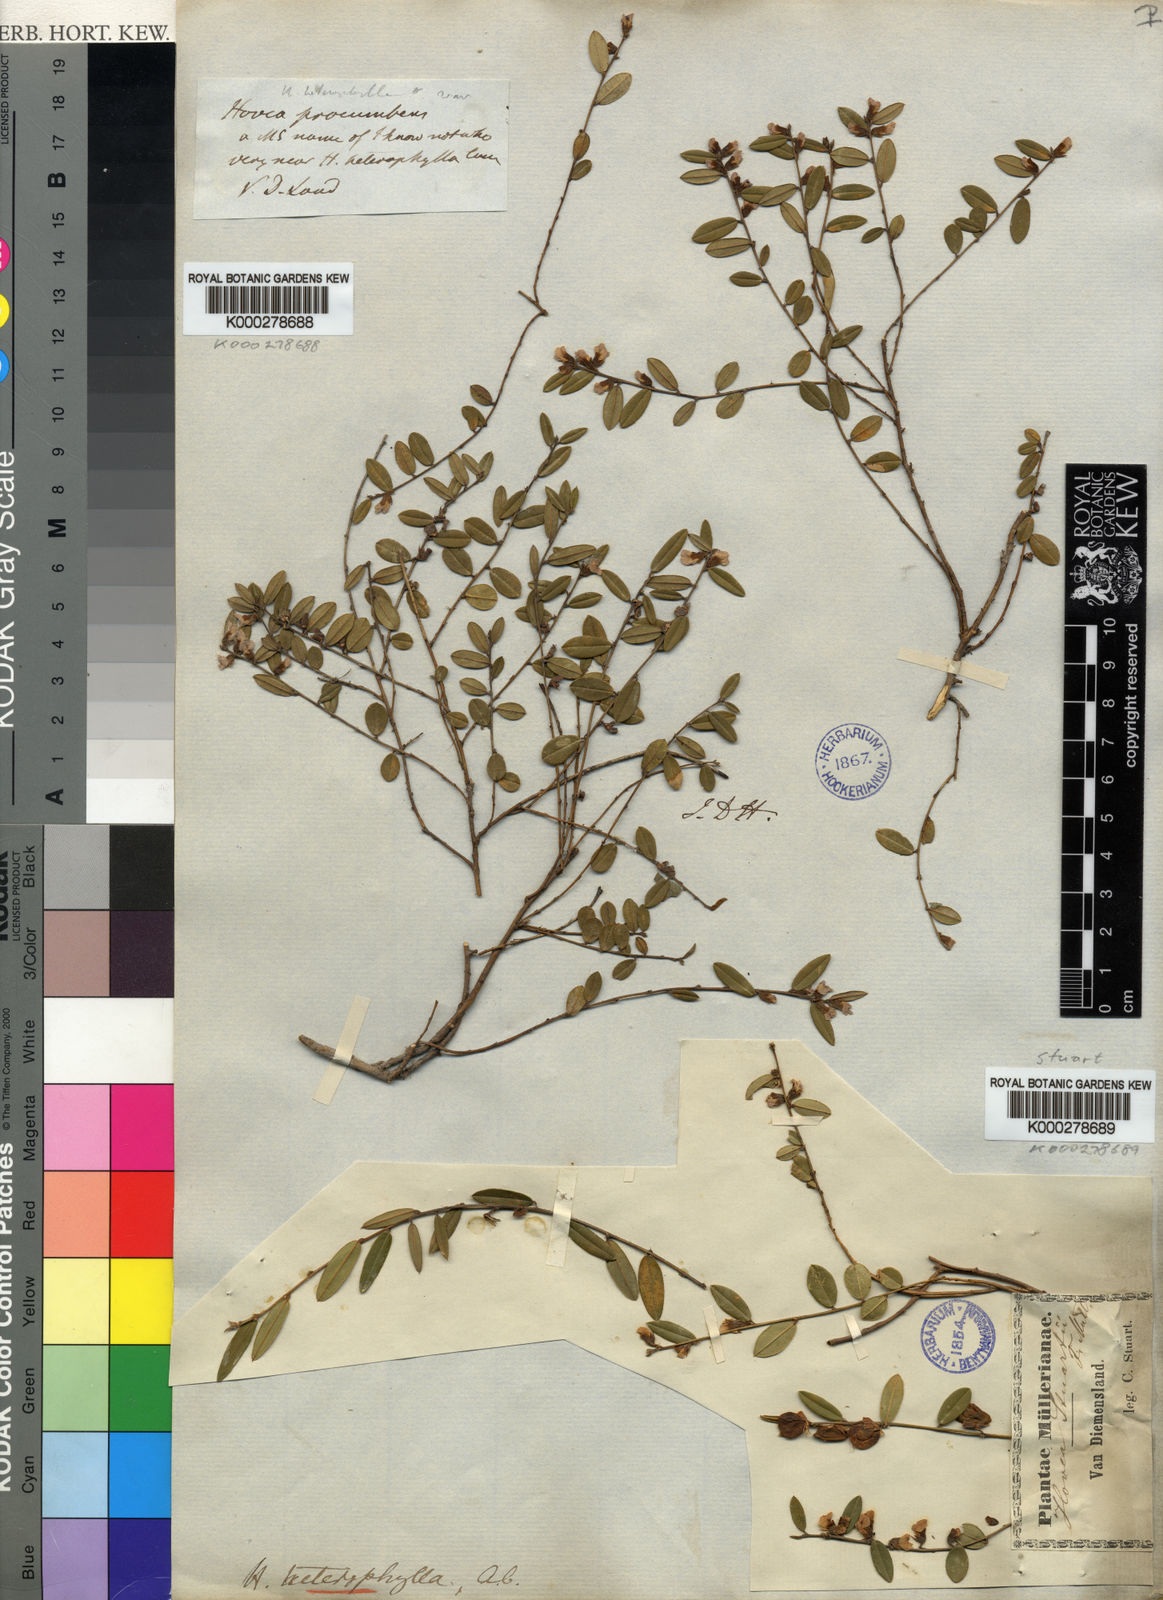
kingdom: Plantae
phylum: Tracheophyta
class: Magnoliopsida
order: Fabales
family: Fabaceae
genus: Hovea
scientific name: Hovea heterophylla
